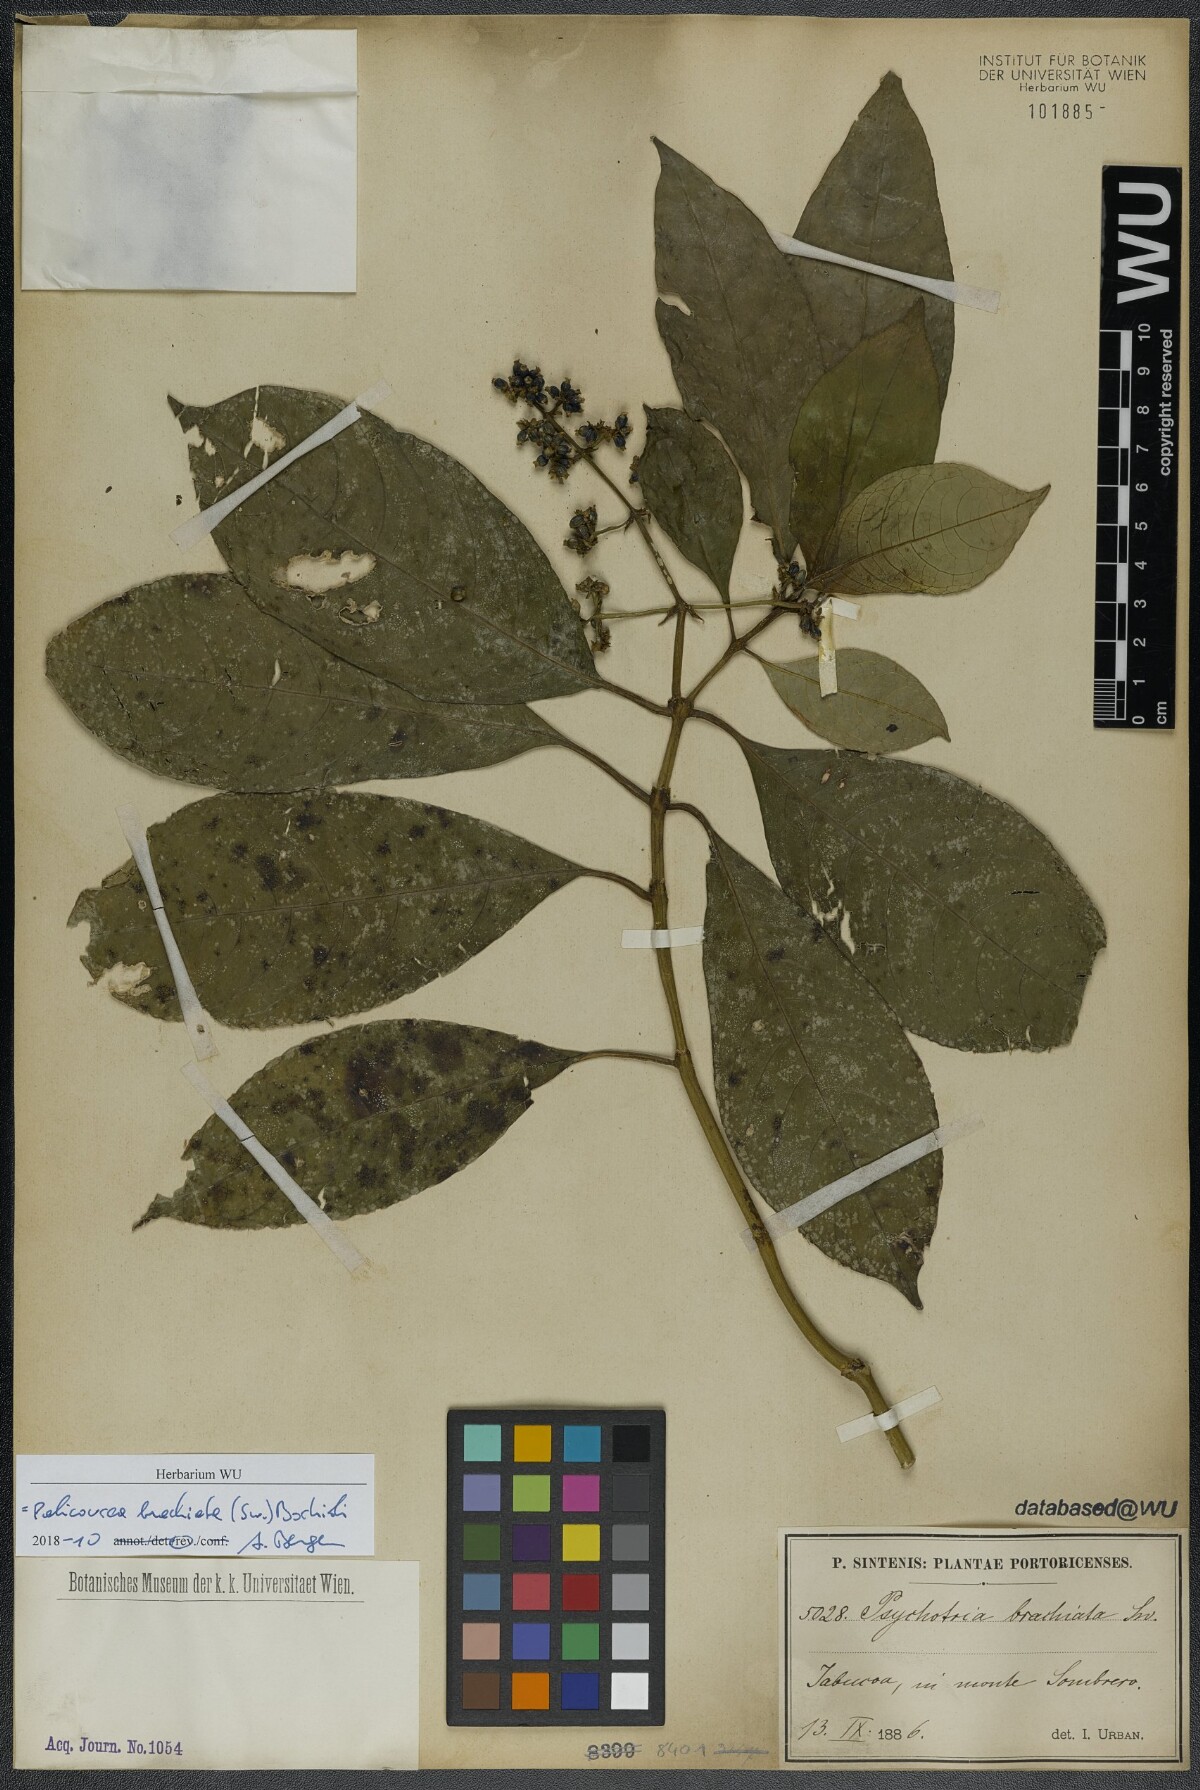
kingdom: Plantae
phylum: Tracheophyta
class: Magnoliopsida
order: Gentianales
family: Rubiaceae
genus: Palicourea
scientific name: Palicourea brachiata
